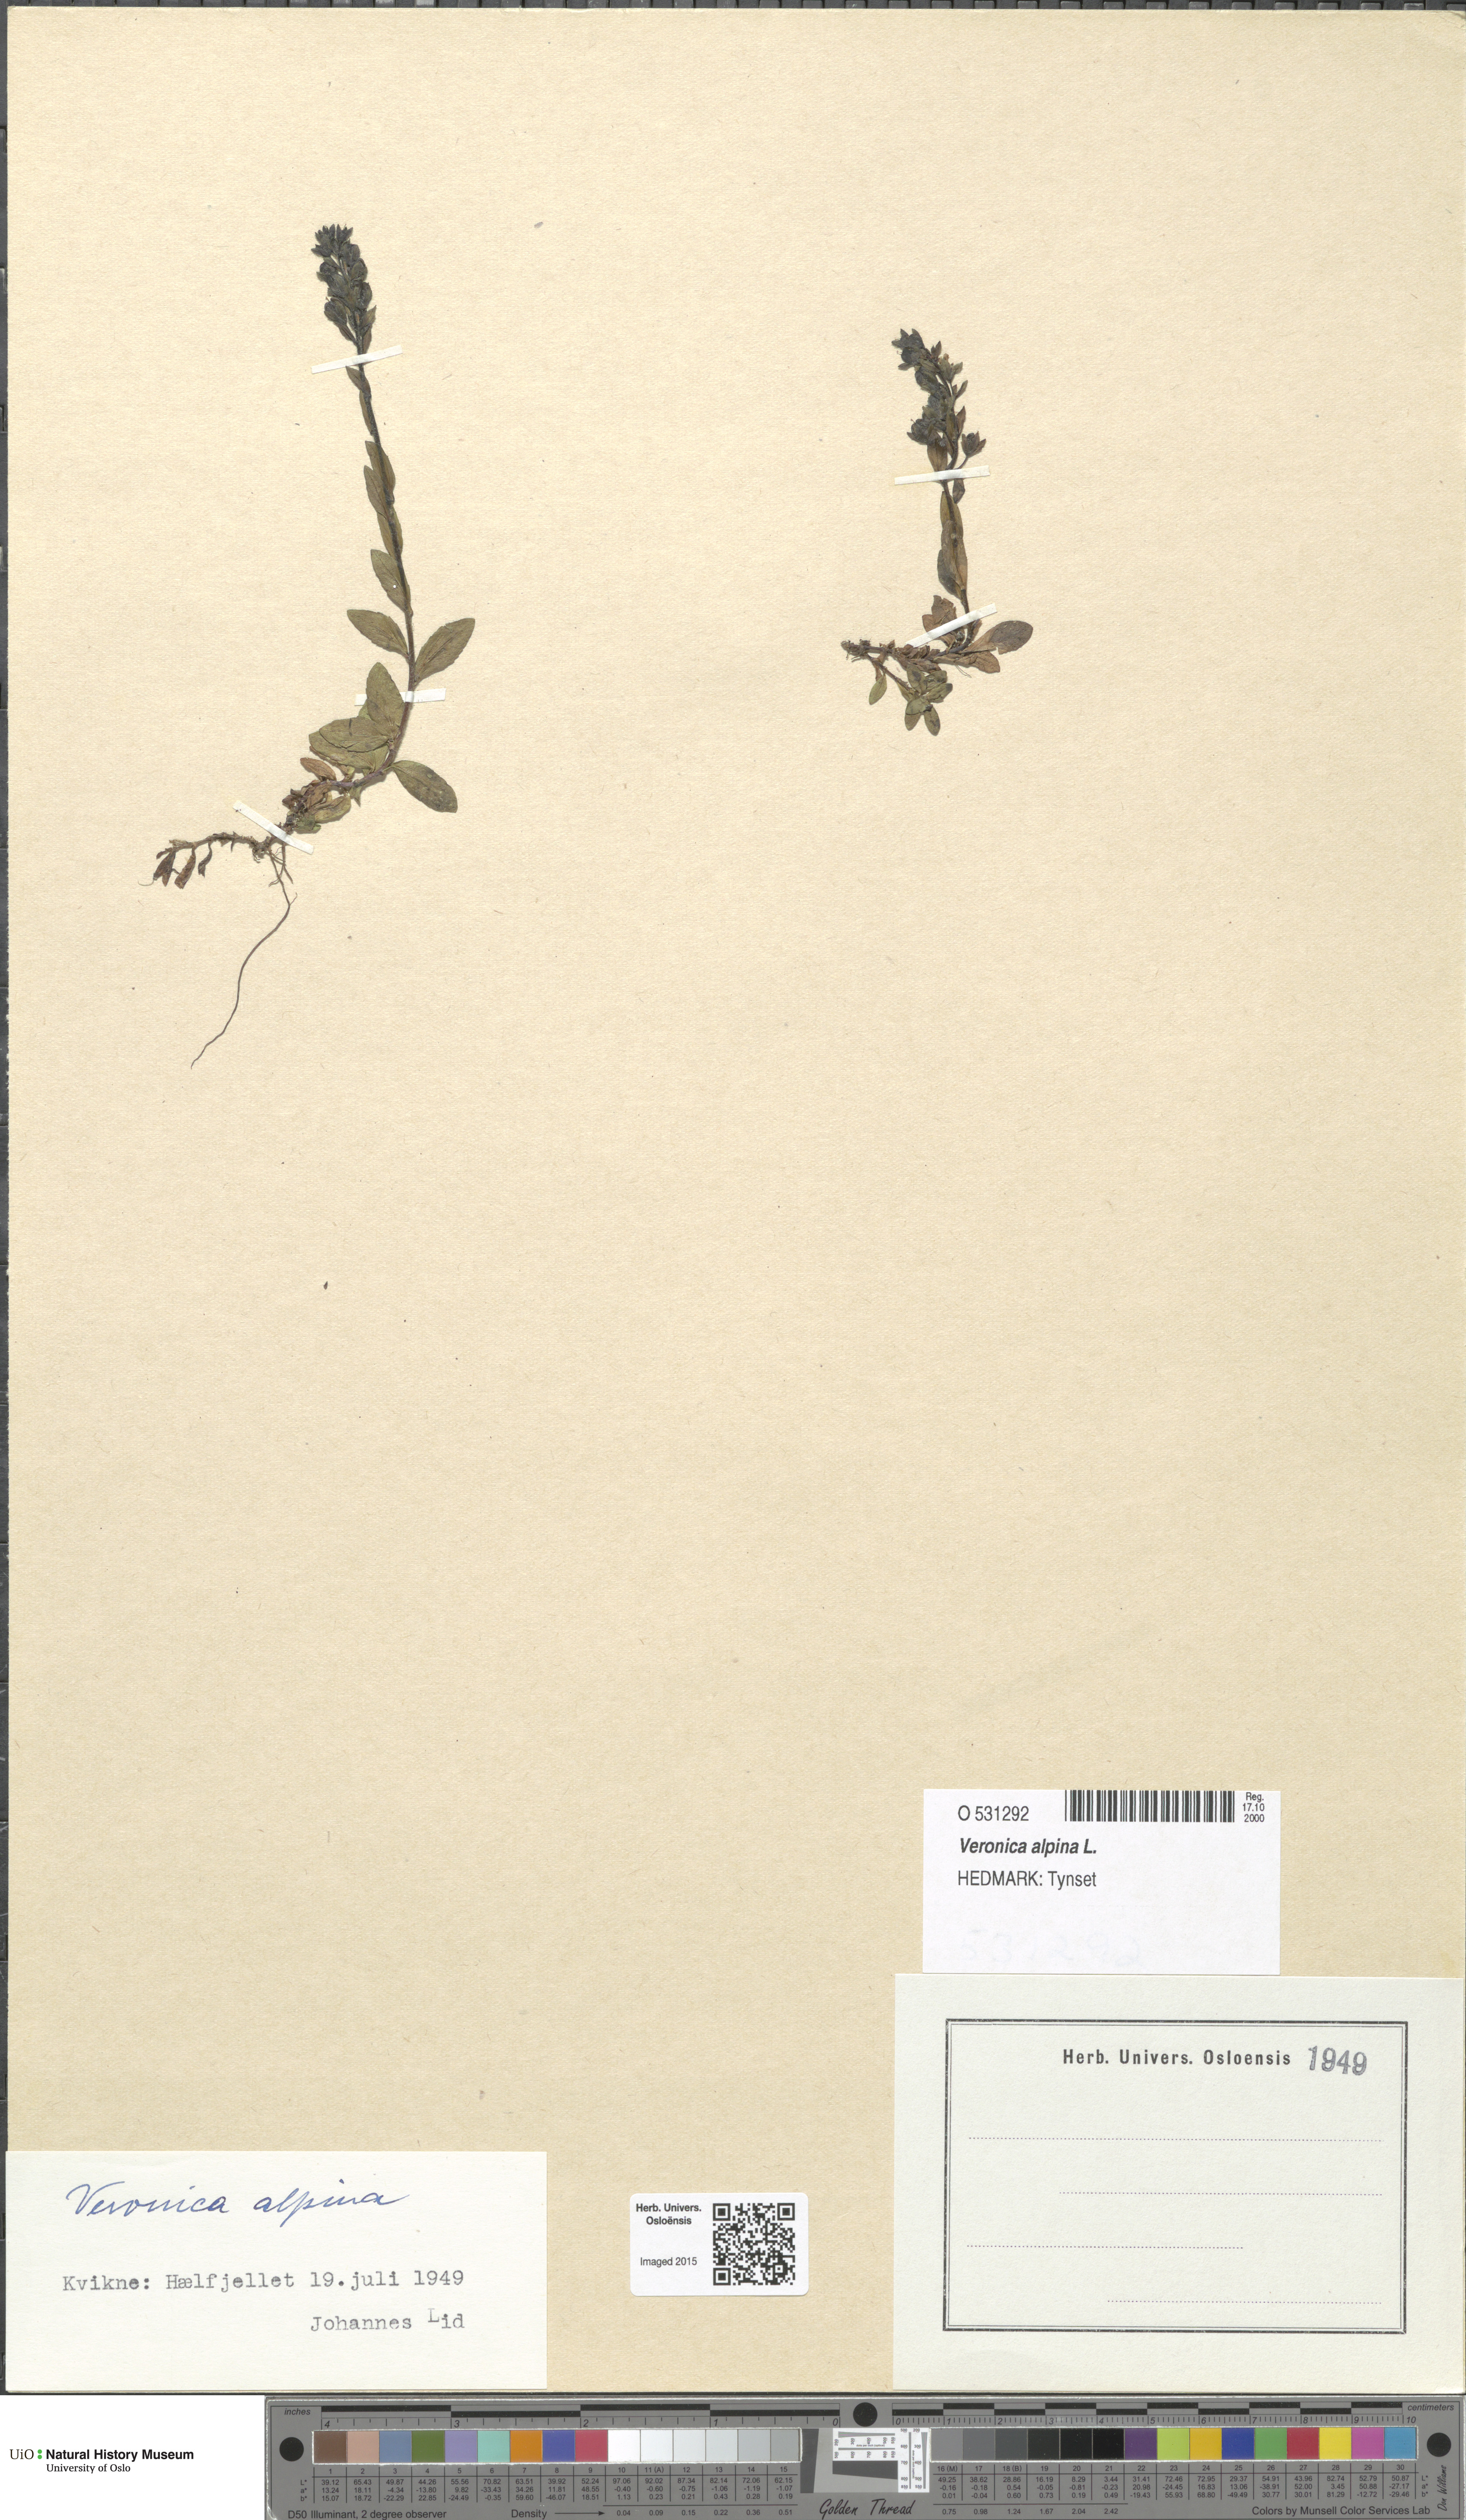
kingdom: Plantae
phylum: Tracheophyta
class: Magnoliopsida
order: Lamiales
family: Plantaginaceae
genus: Veronica
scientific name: Veronica alpina
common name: Alpine speedwell
